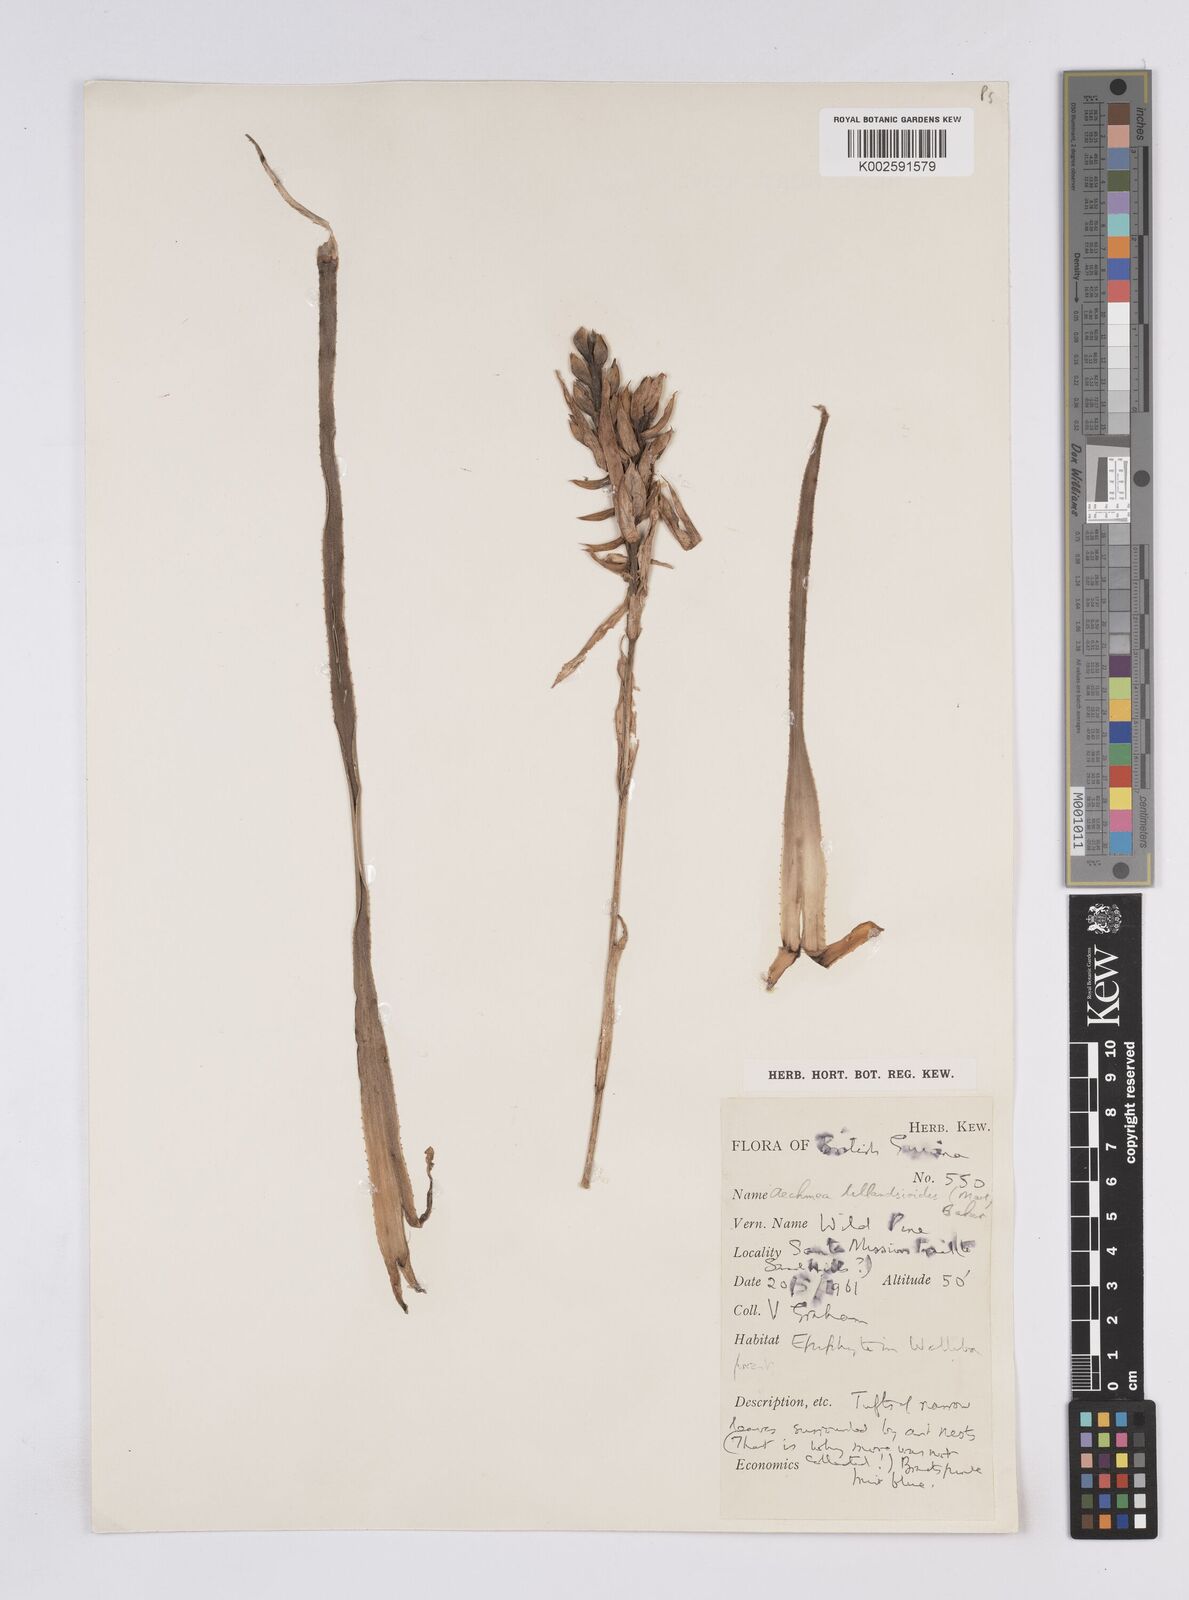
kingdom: Plantae
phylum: Tracheophyta
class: Liliopsida
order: Poales
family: Bromeliaceae
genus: Aechmea
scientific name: Aechmea tillandsioides
